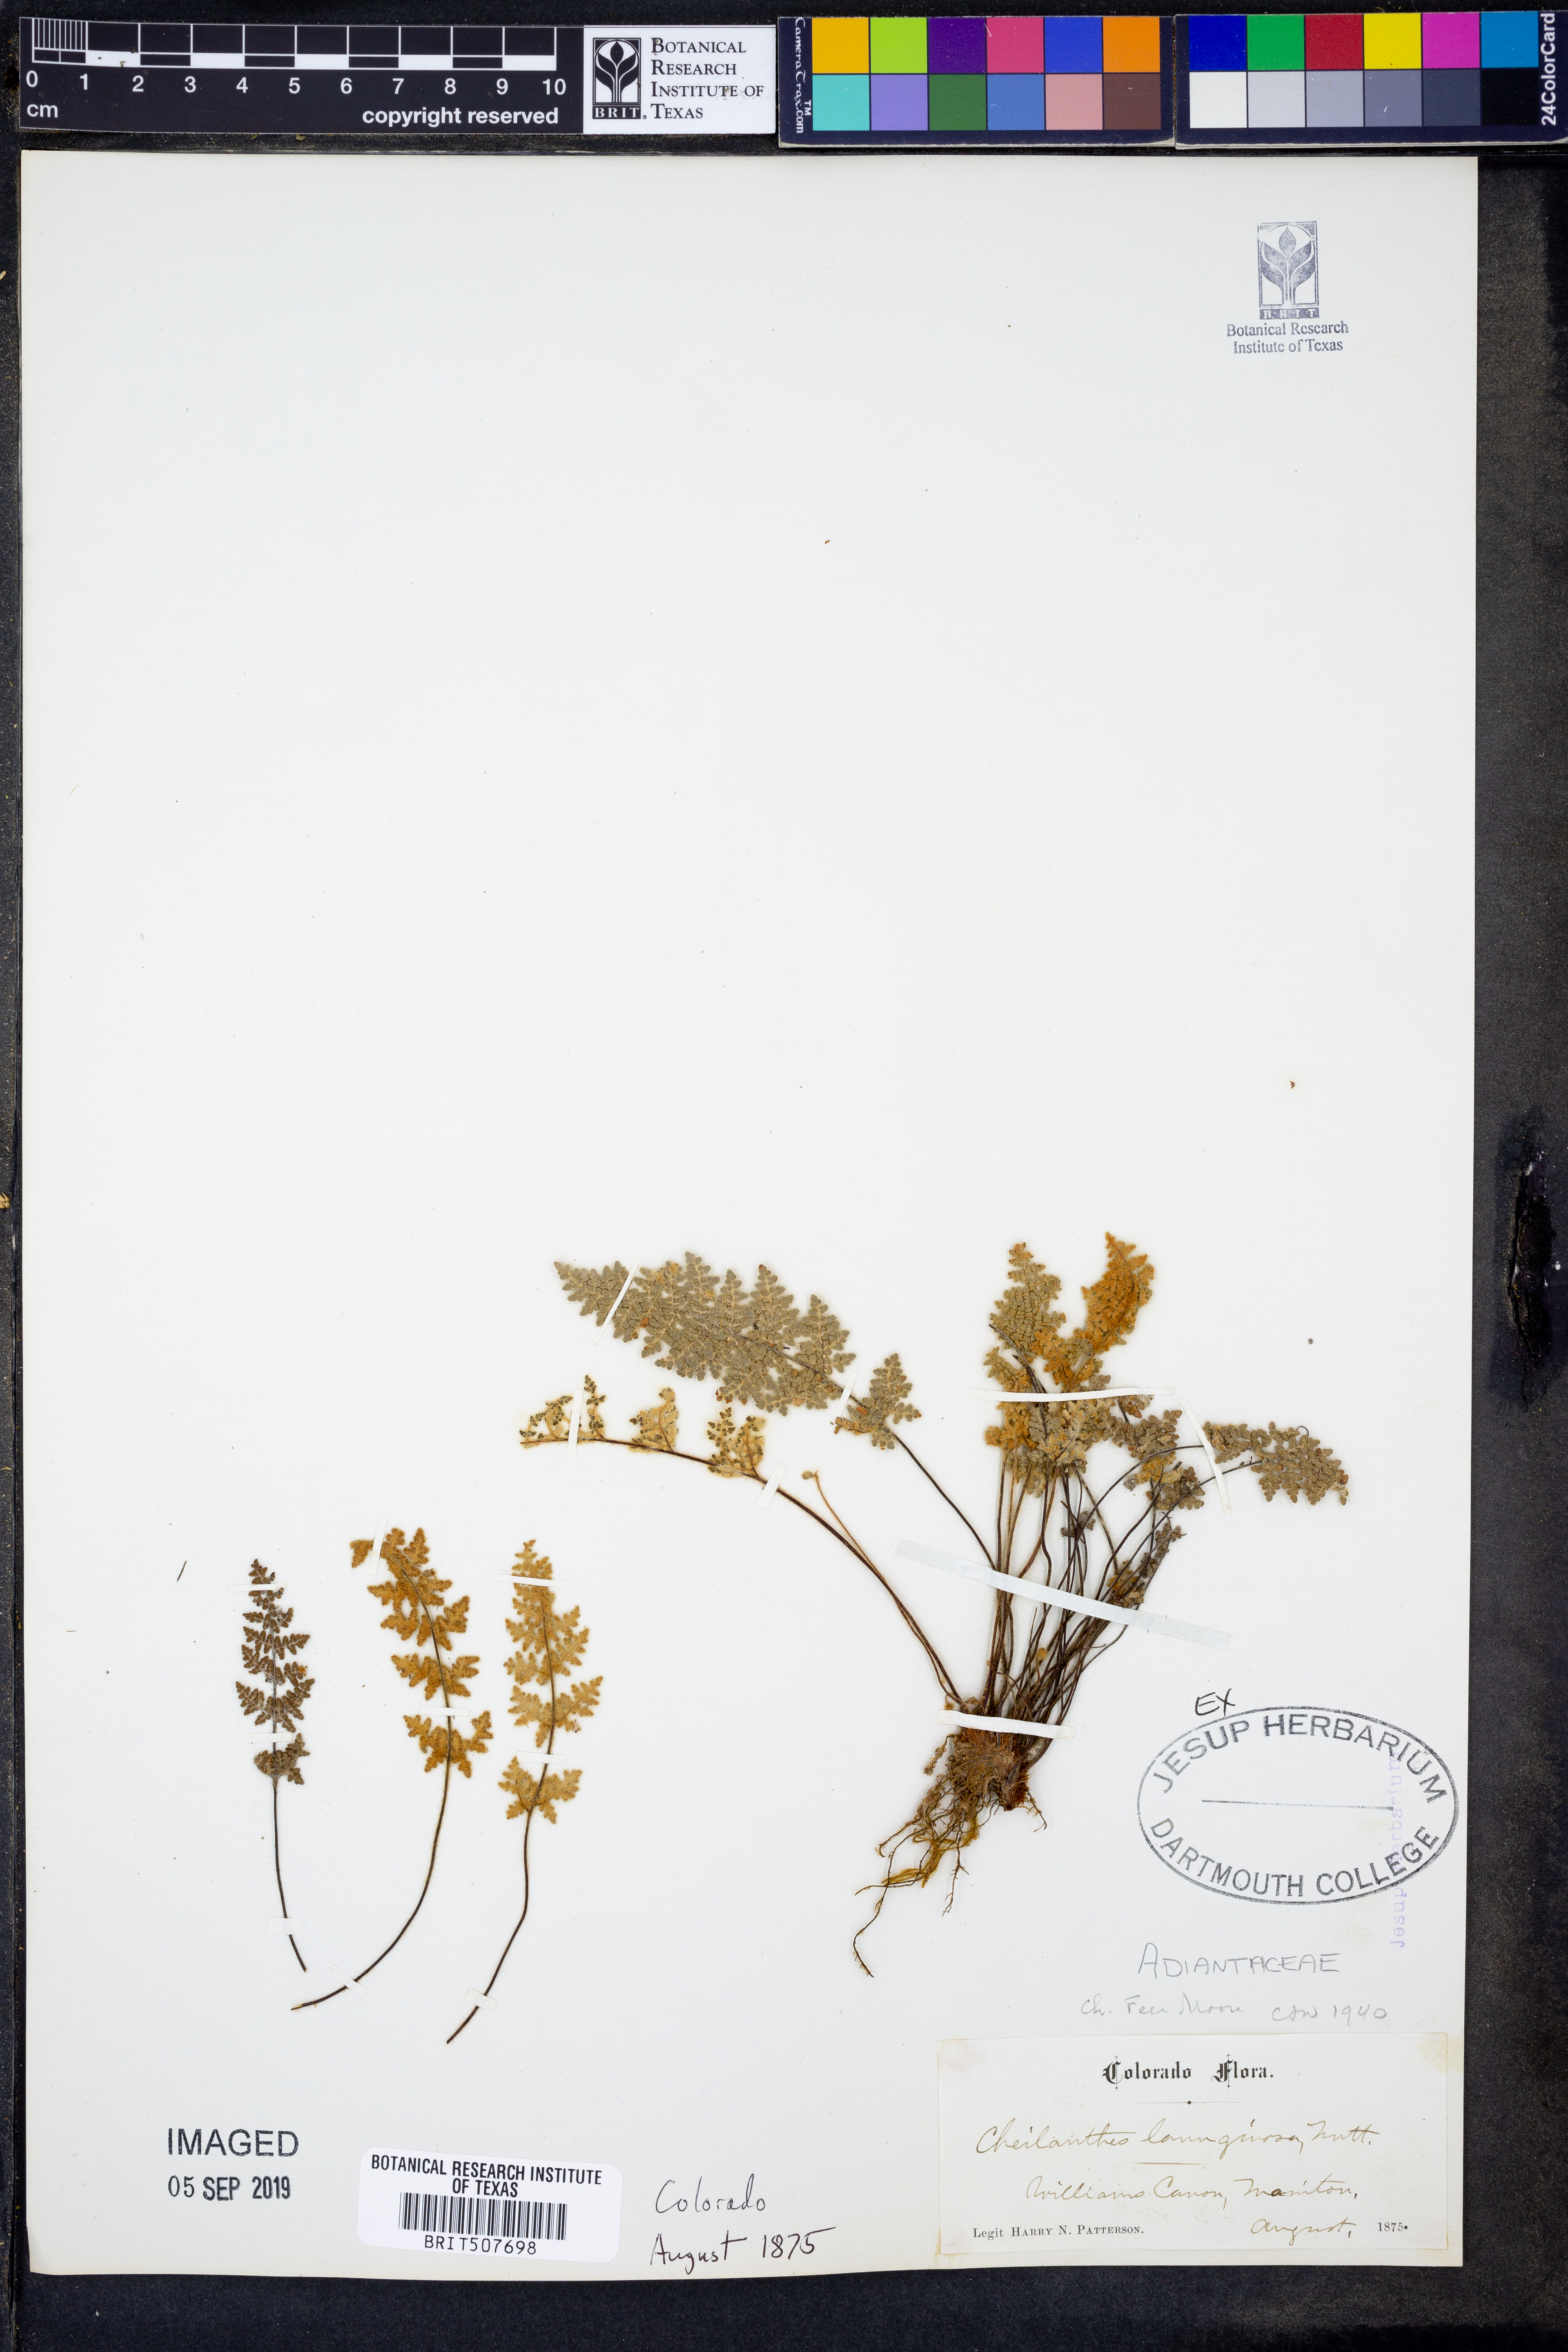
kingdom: Plantae
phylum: Tracheophyta
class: Polypodiopsida
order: Polypodiales
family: Pteridaceae
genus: Myriopteris
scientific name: Myriopteris gracilis
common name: Fee's lip fern
